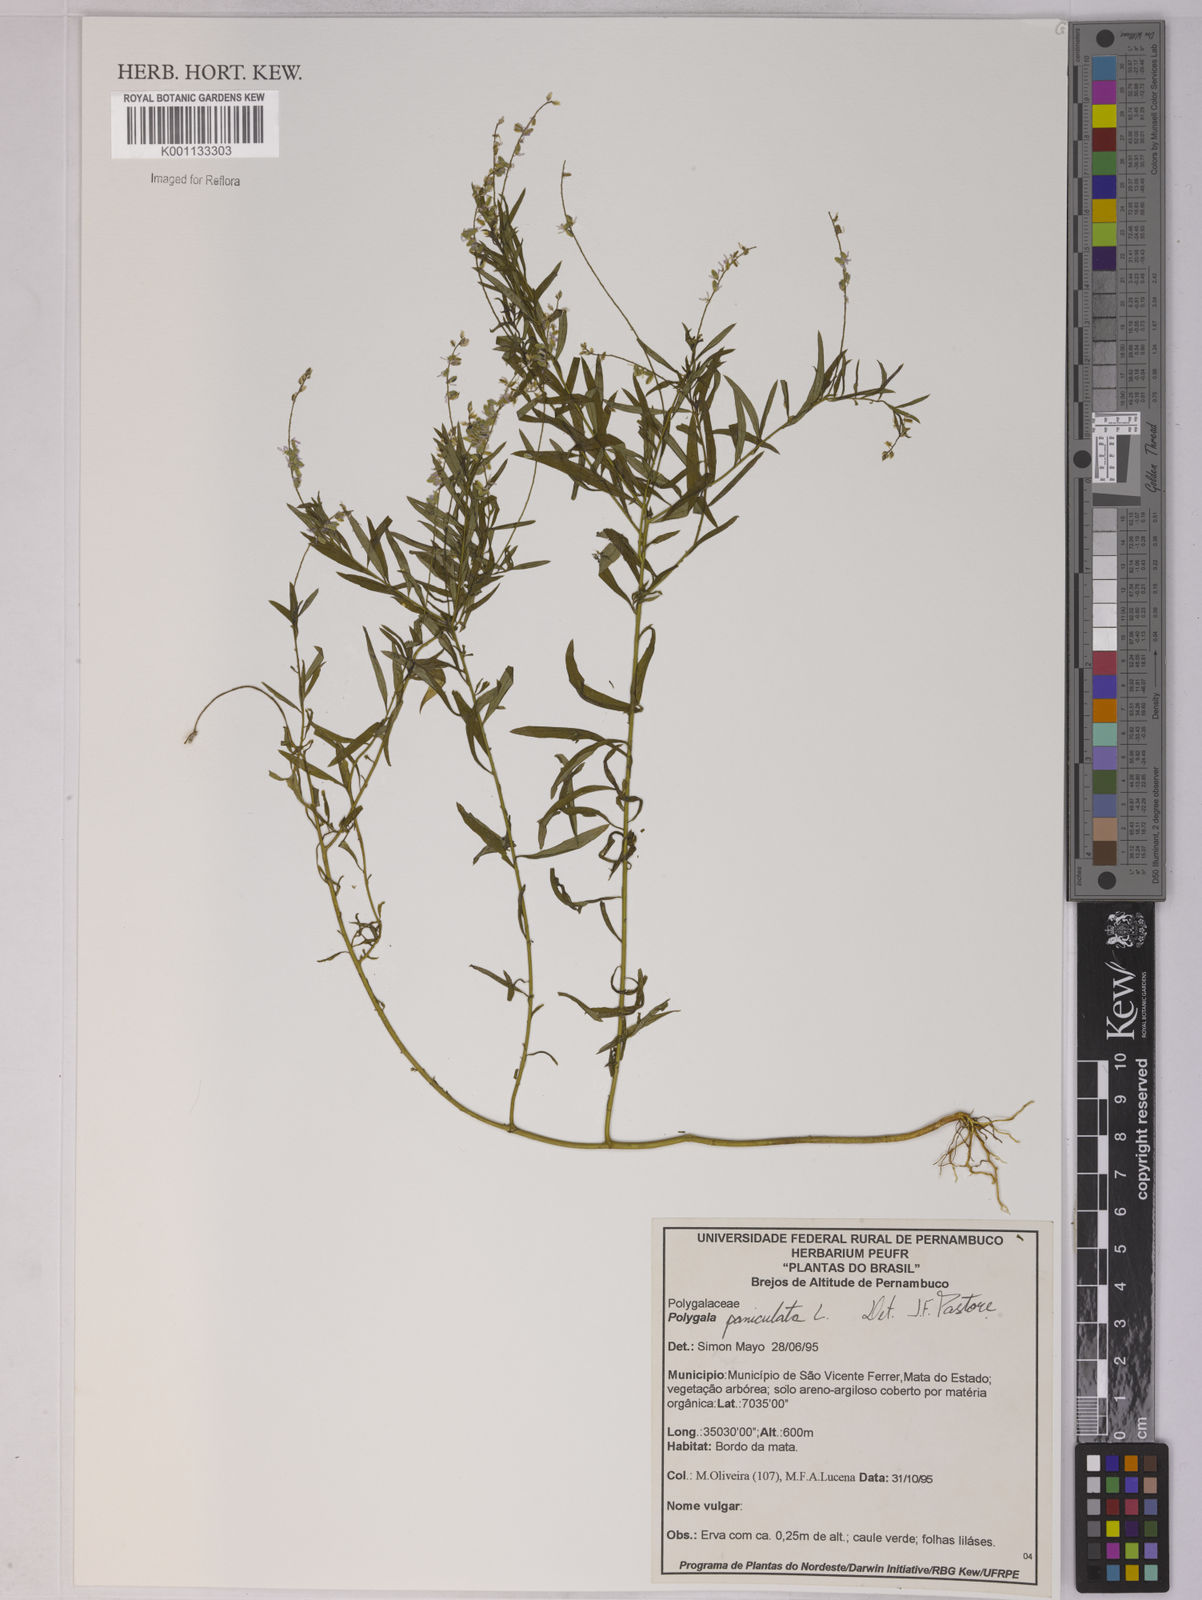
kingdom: Plantae
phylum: Tracheophyta
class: Magnoliopsida
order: Fabales
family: Polygalaceae
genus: Polygala
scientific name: Polygala paniculata
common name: Orosne
